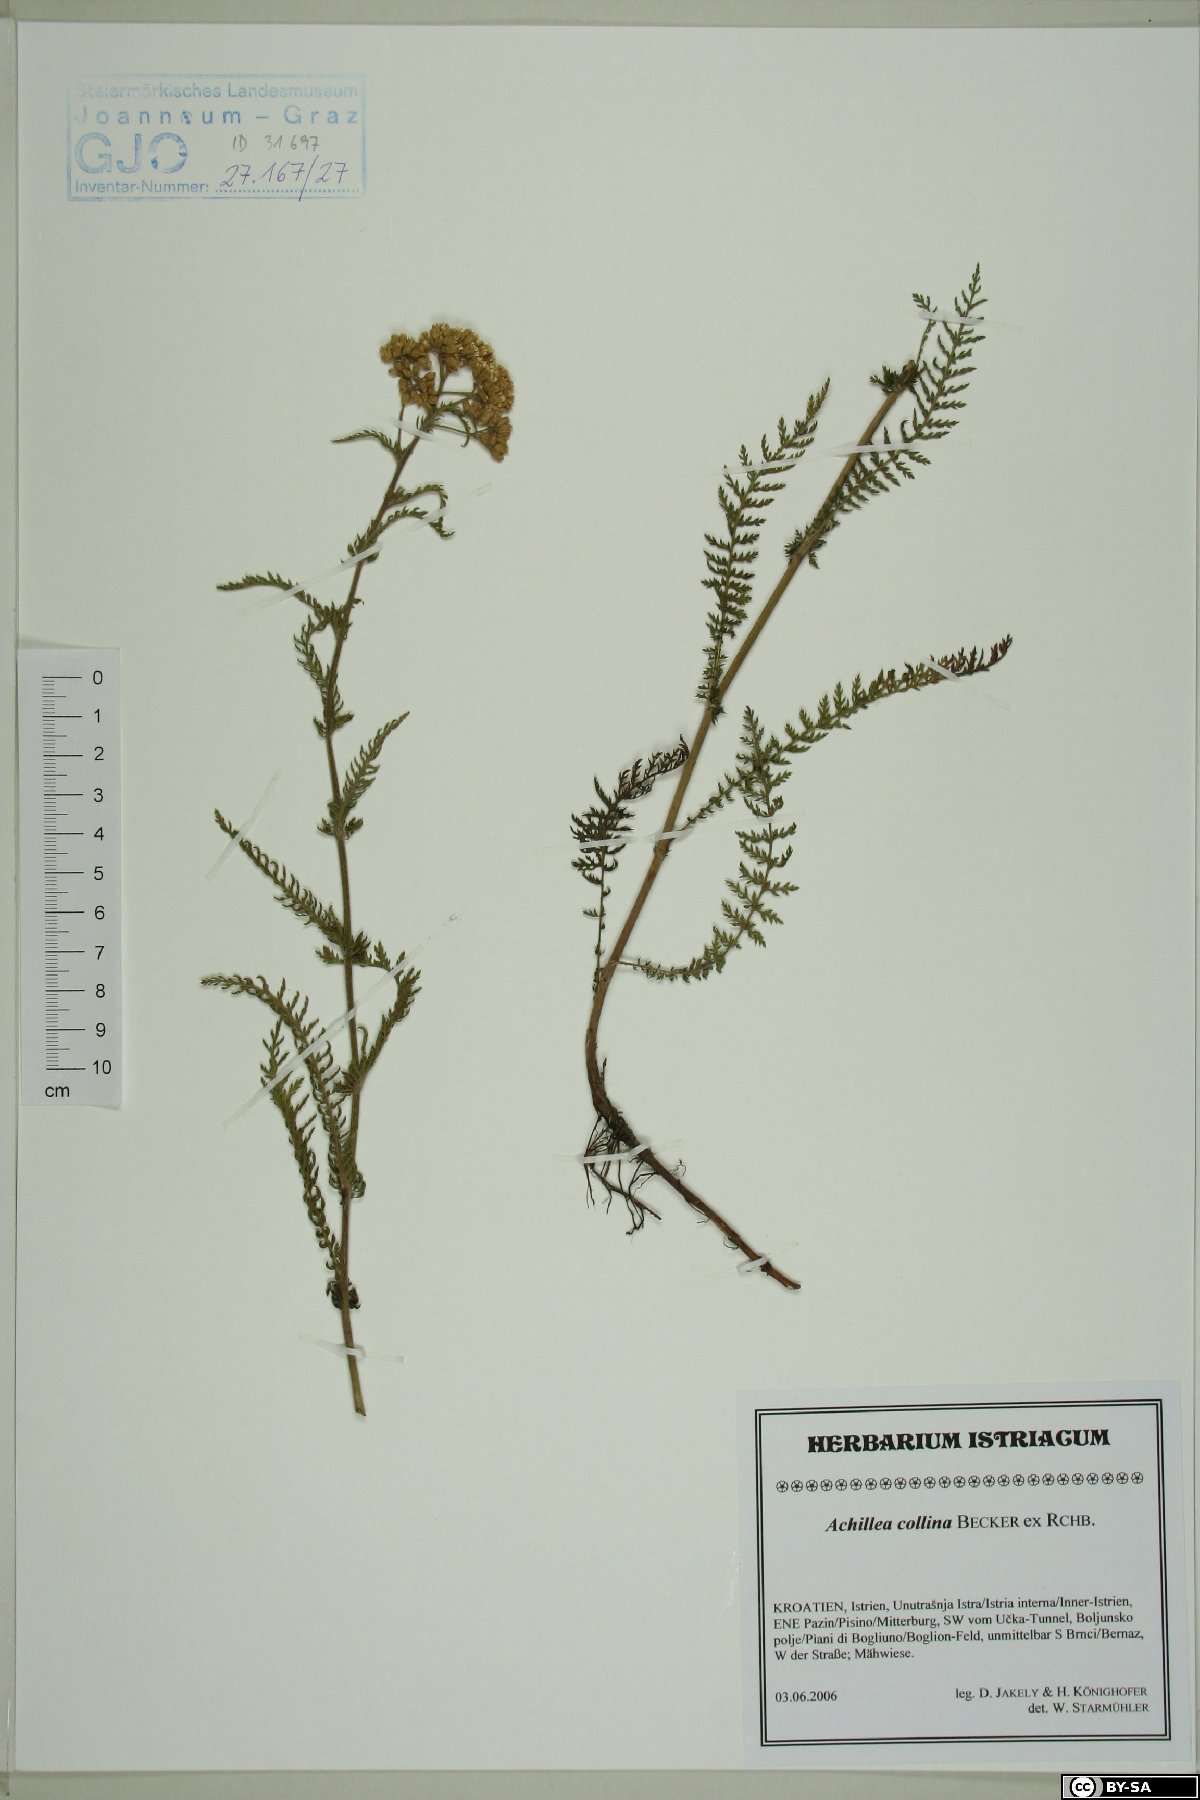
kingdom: Plantae
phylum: Tracheophyta
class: Magnoliopsida
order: Asterales
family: Asteraceae
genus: Achillea
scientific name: Achillea collina
